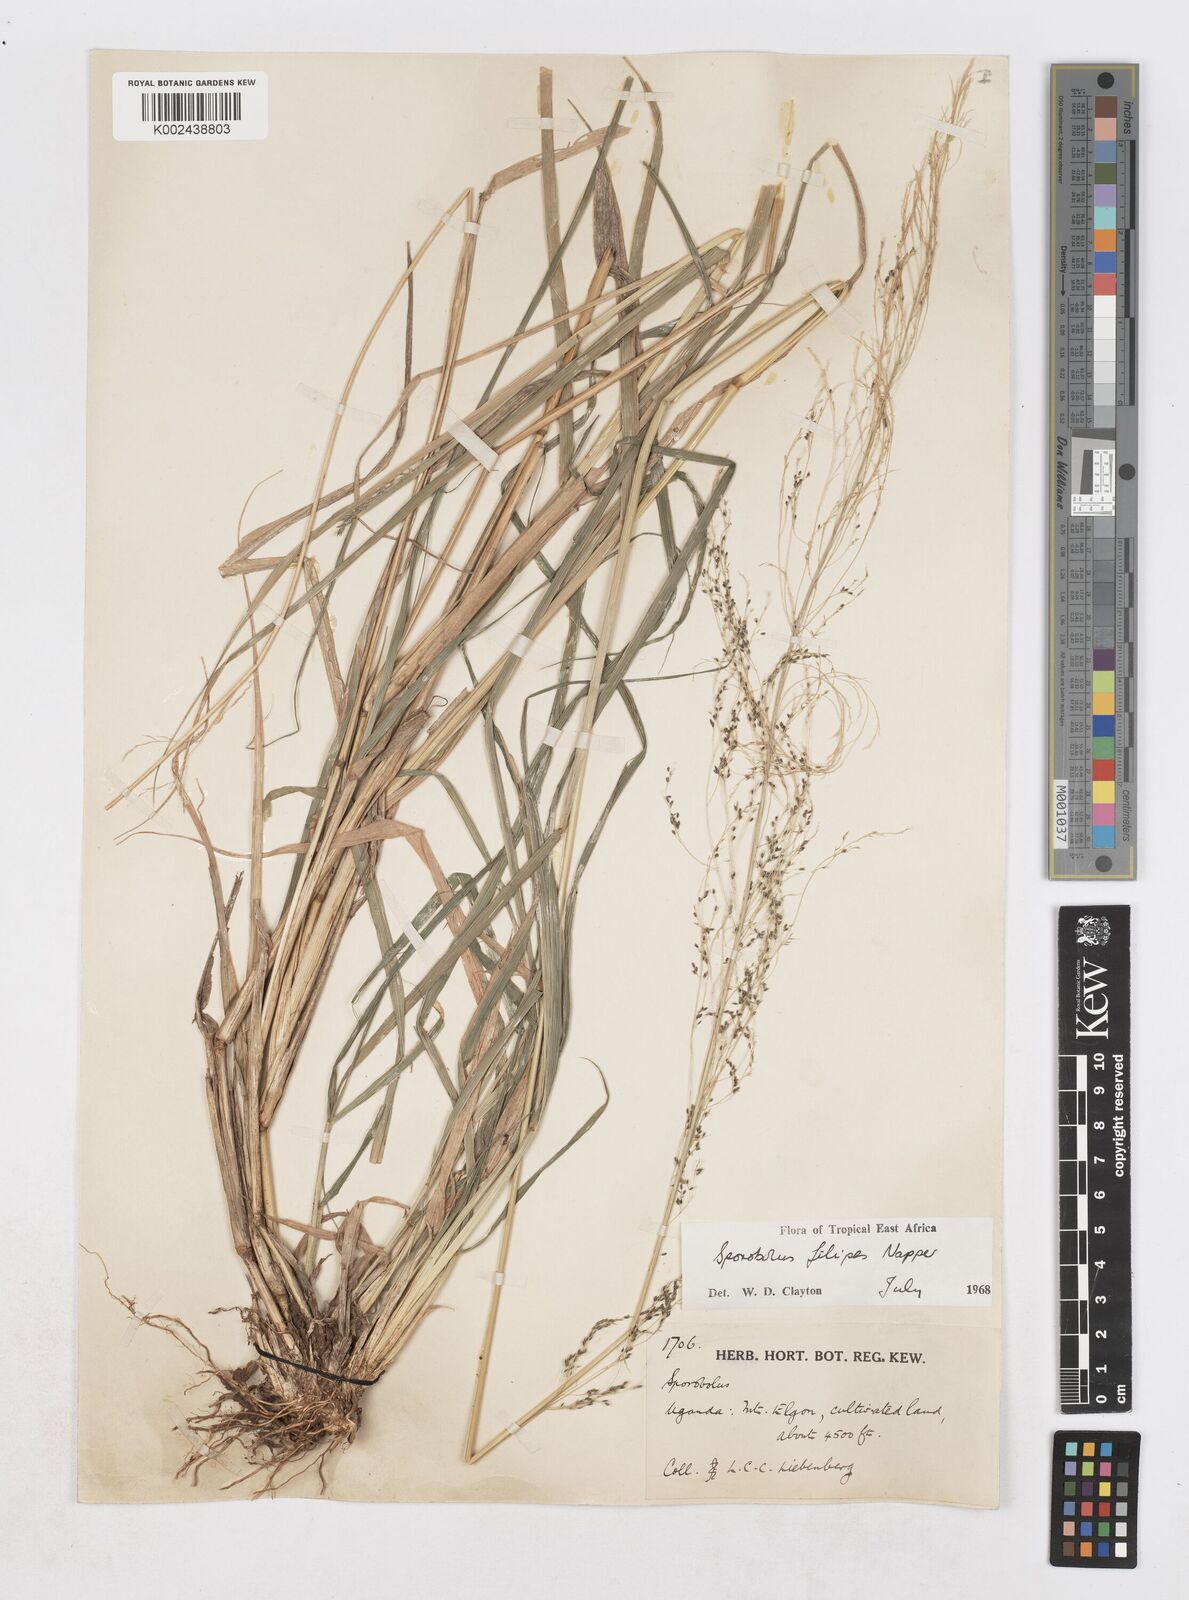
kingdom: Plantae
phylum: Tracheophyta
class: Liliopsida
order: Poales
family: Poaceae
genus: Sporobolus
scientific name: Sporobolus agrostoides
